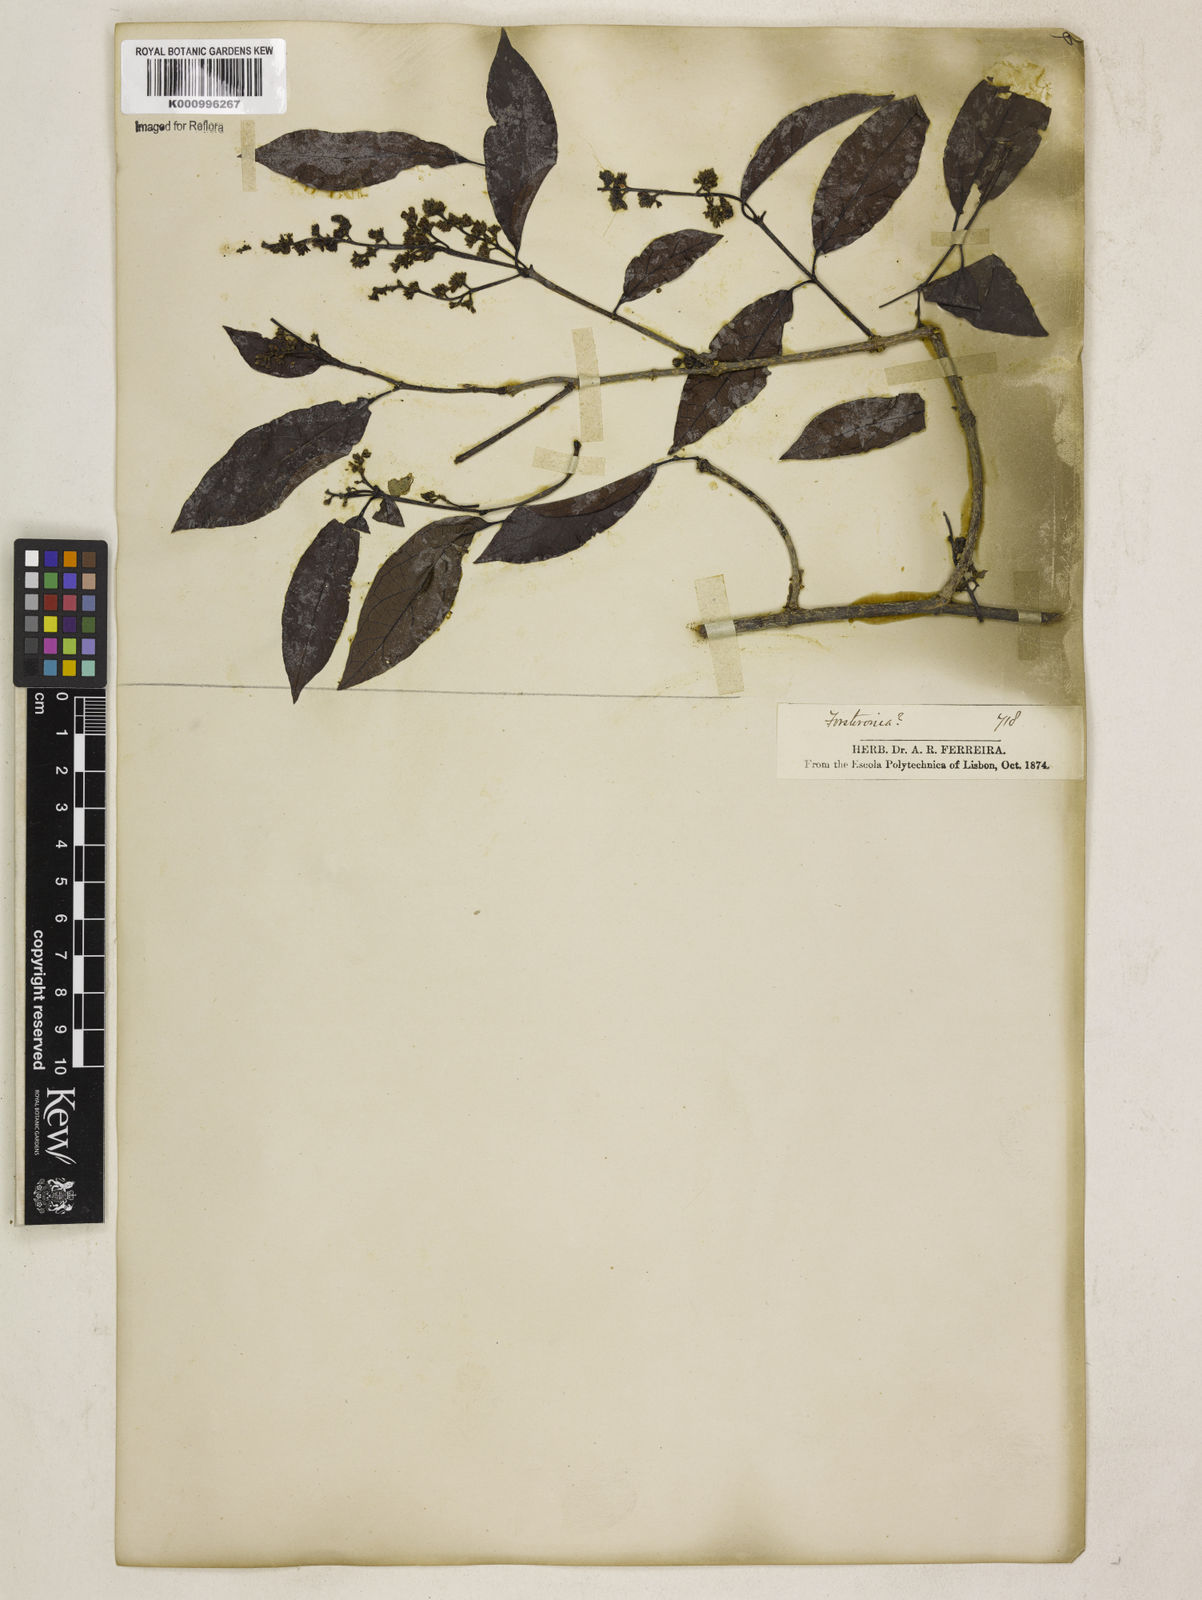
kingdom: Plantae
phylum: Tracheophyta
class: Magnoliopsida
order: Gentianales
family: Apocynaceae
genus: Forsteronia
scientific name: Forsteronia
